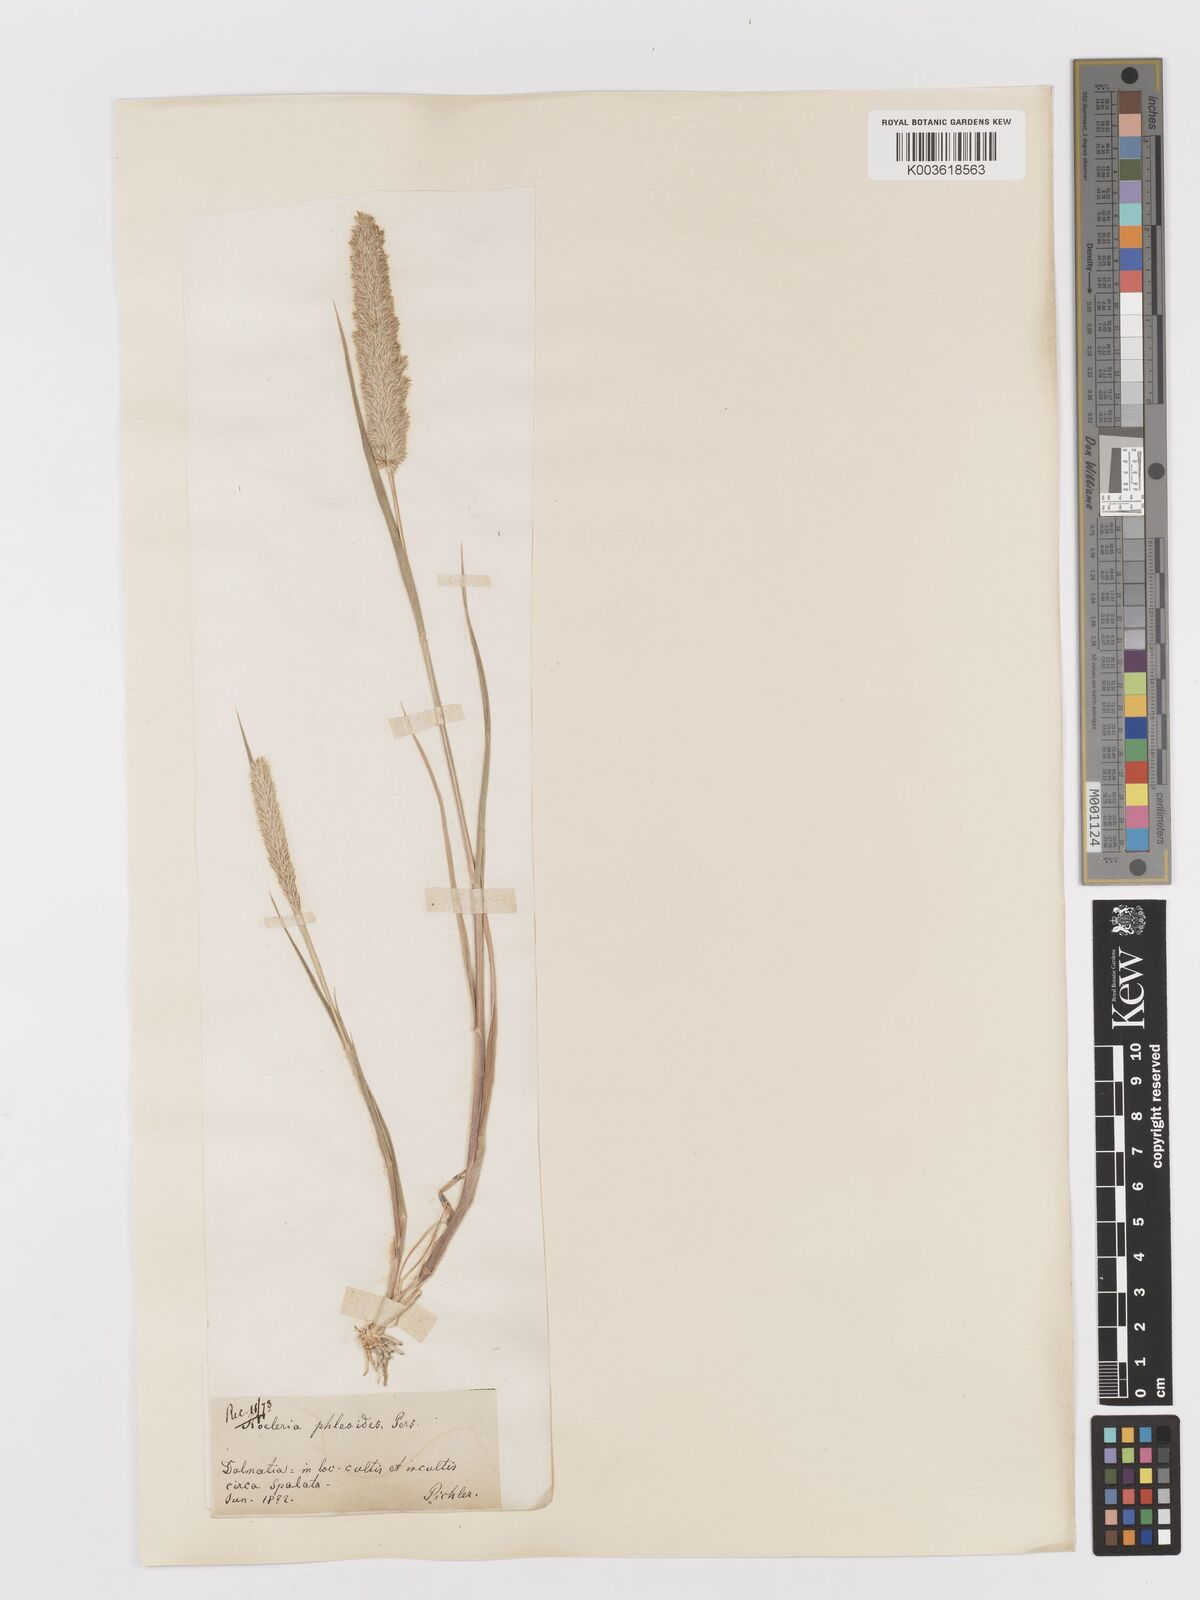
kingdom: Plantae
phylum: Tracheophyta
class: Liliopsida
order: Poales
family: Poaceae
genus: Rostraria
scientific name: Rostraria cristata
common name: Mediterranean hair-grass
